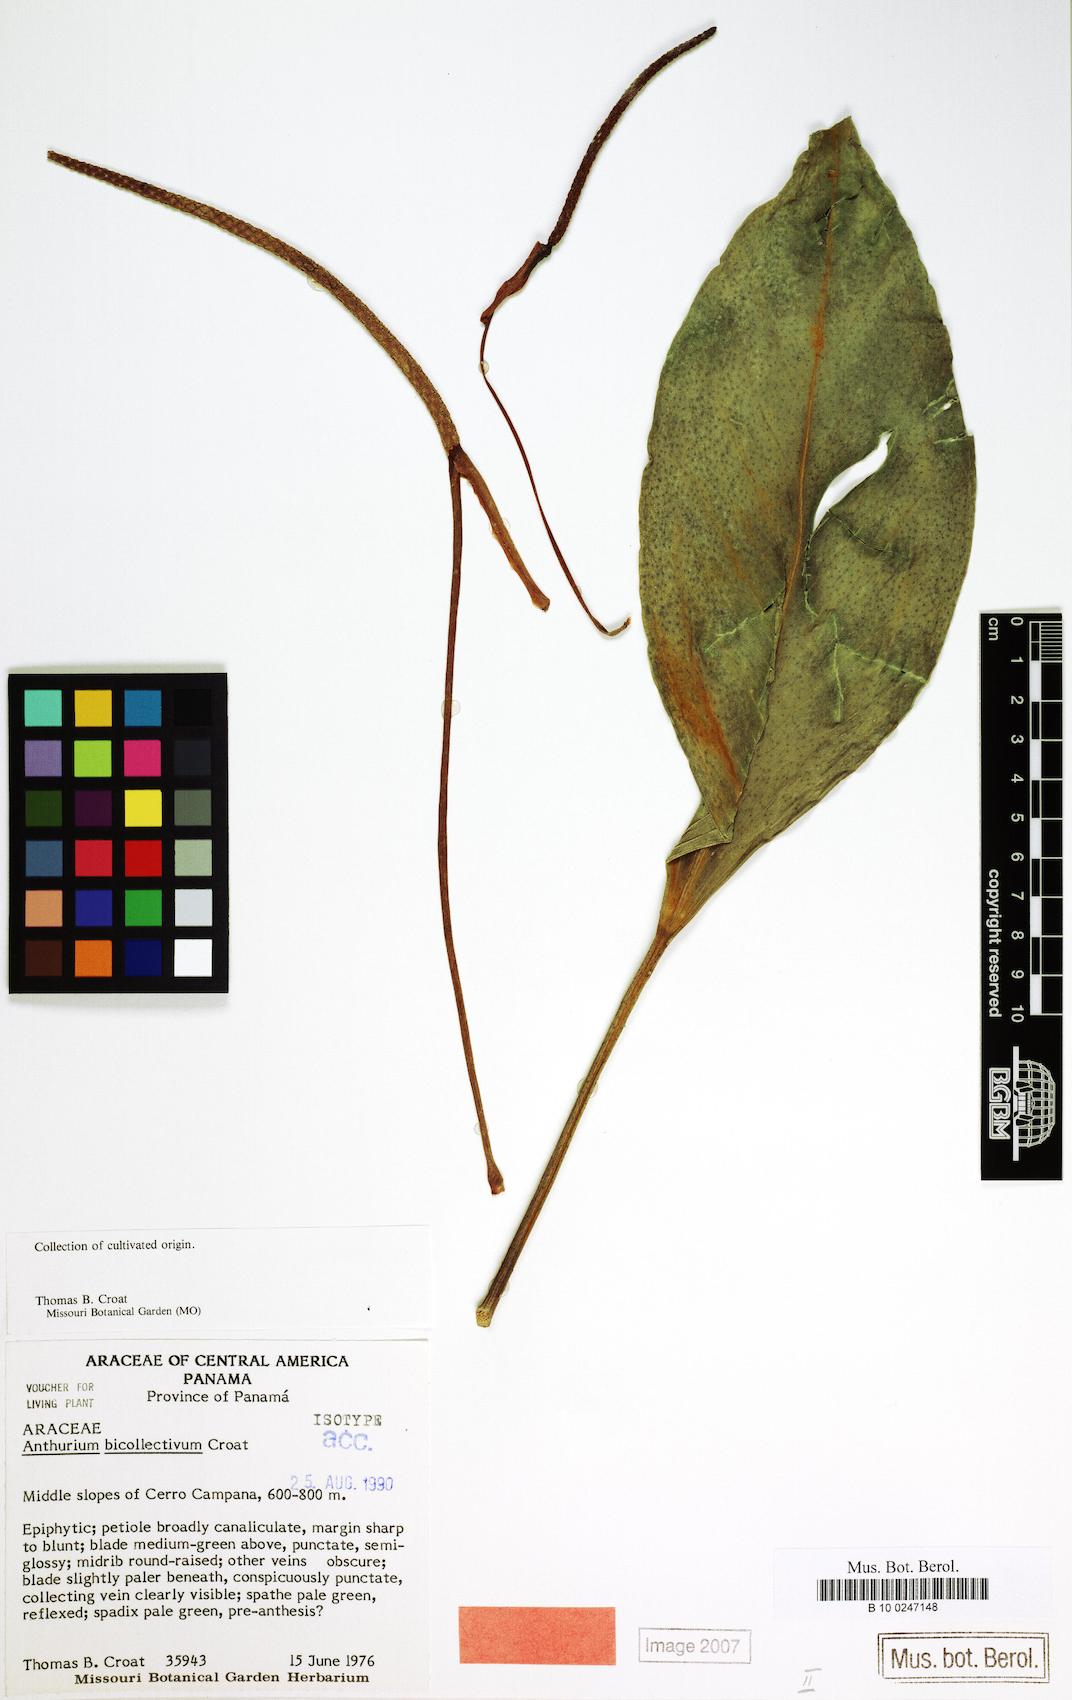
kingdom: Plantae
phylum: Tracheophyta
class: Liliopsida
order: Alismatales
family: Araceae
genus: Anthurium
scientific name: Anthurium durandii
